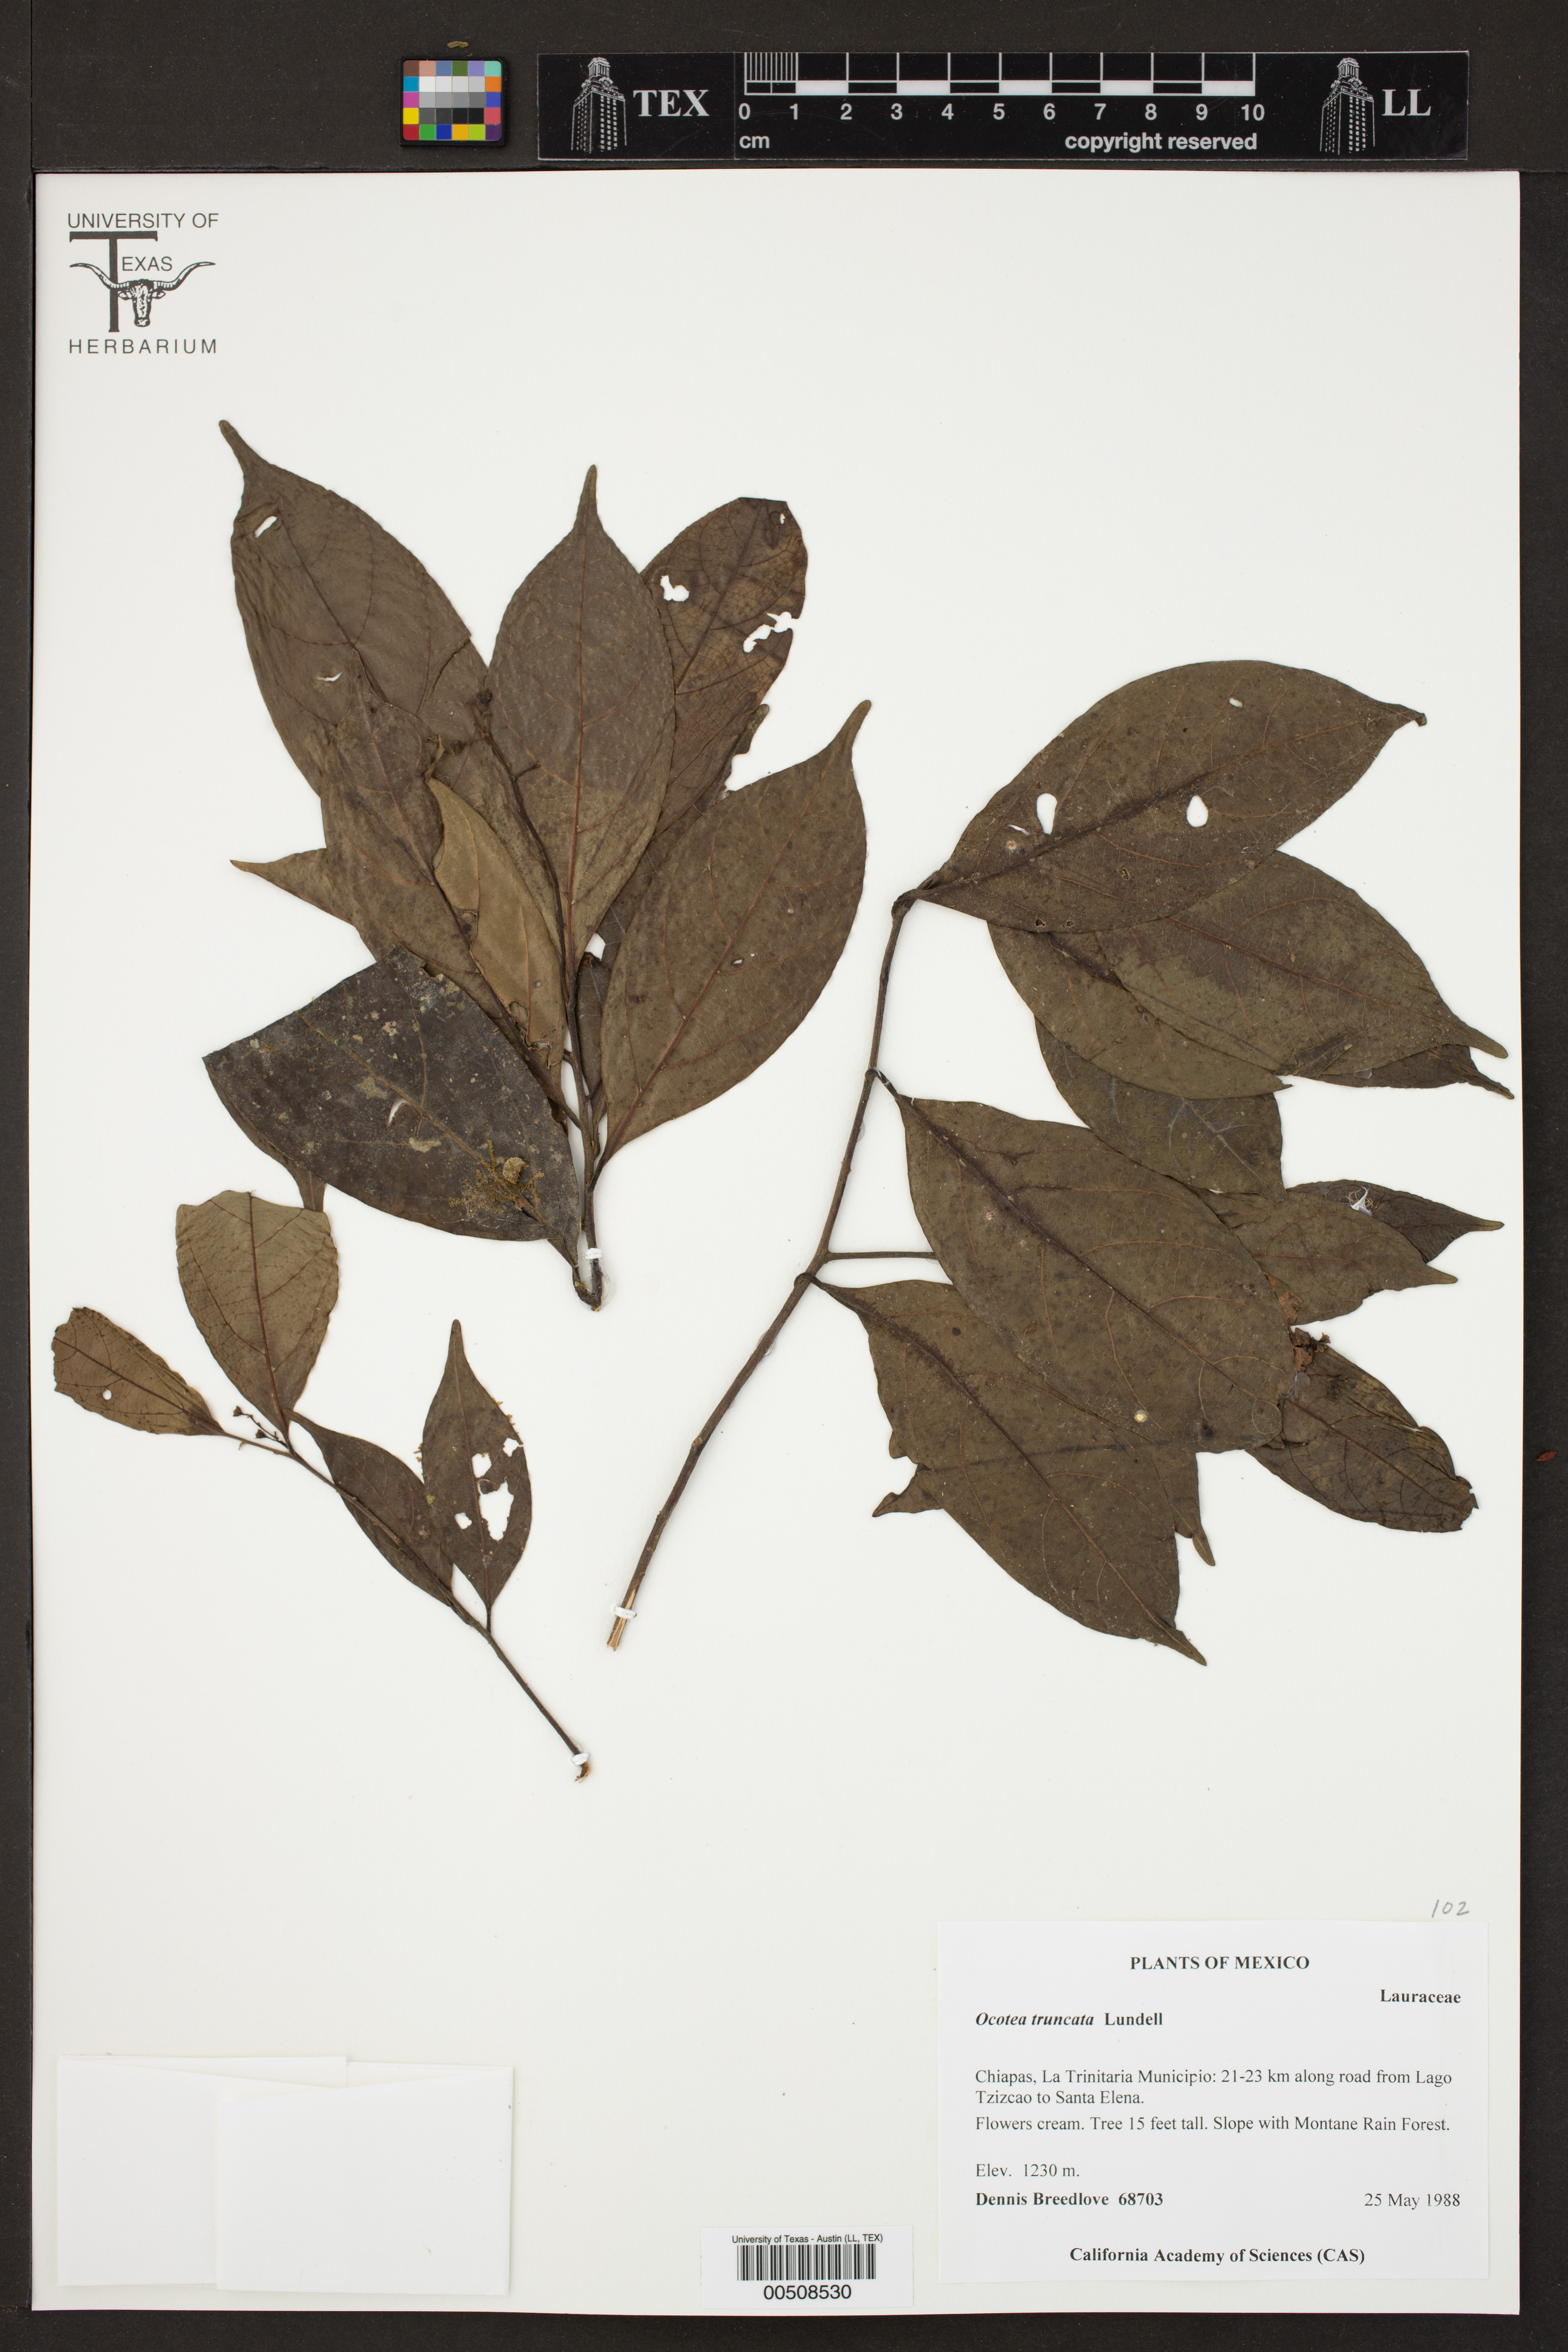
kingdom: Plantae
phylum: Tracheophyta
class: Magnoliopsida
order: Laurales
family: Lauraceae
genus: Ocotea
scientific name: Ocotea truncata
